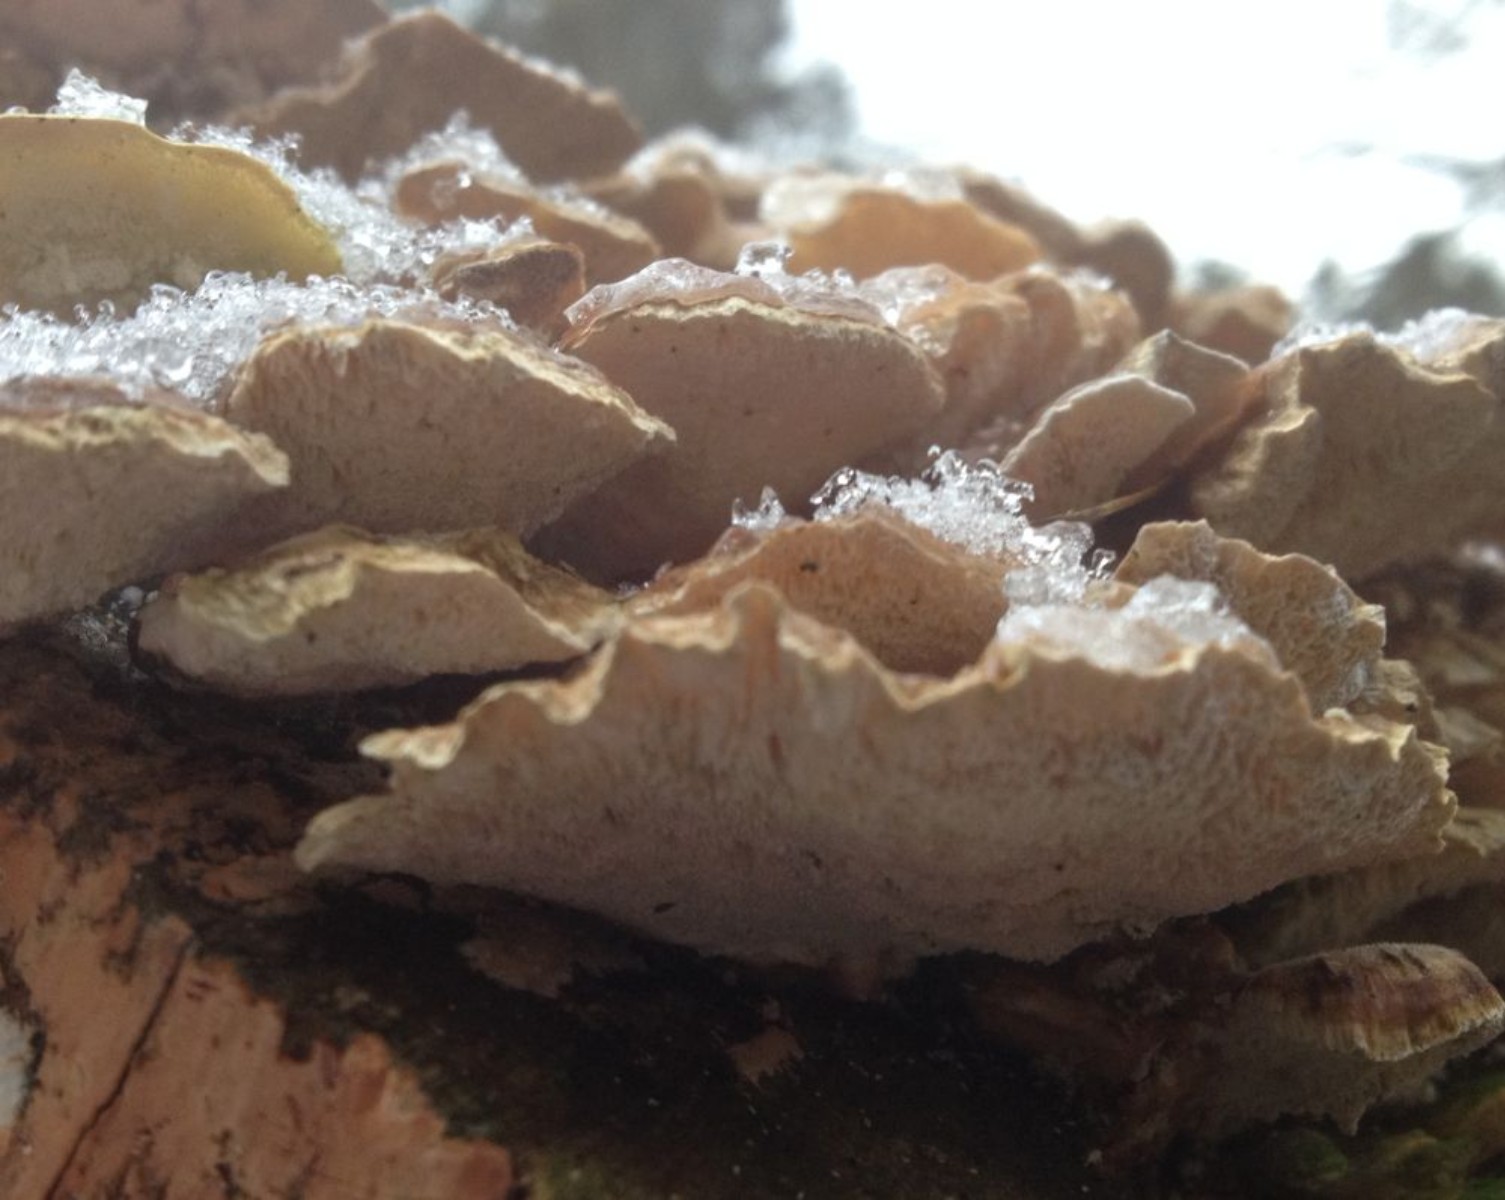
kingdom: Fungi
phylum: Basidiomycota
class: Agaricomycetes
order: Polyporales
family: Polyporaceae
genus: Trametes
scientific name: Trametes ochracea
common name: bæltet læderporesvamp
